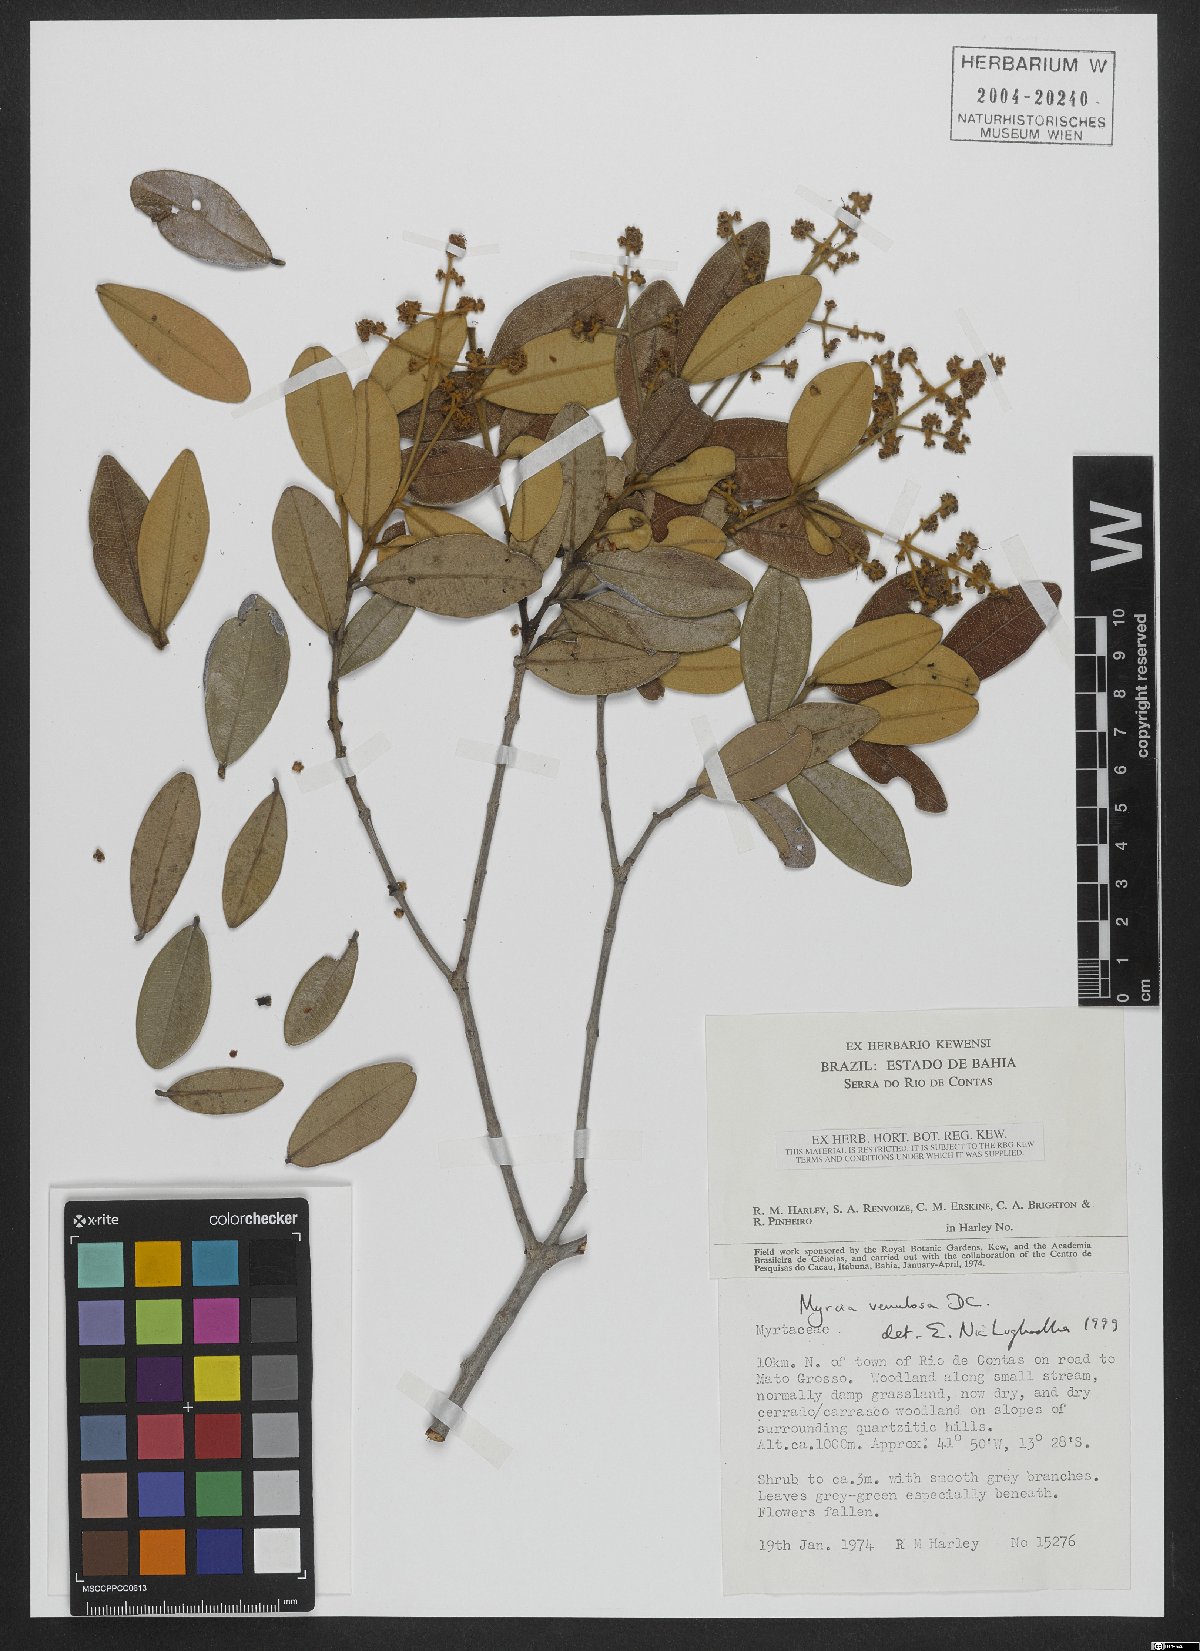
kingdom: Plantae
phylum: Tracheophyta
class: Magnoliopsida
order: Myrtales
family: Myrtaceae
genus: Myrcia
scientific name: Myrcia venulosa
